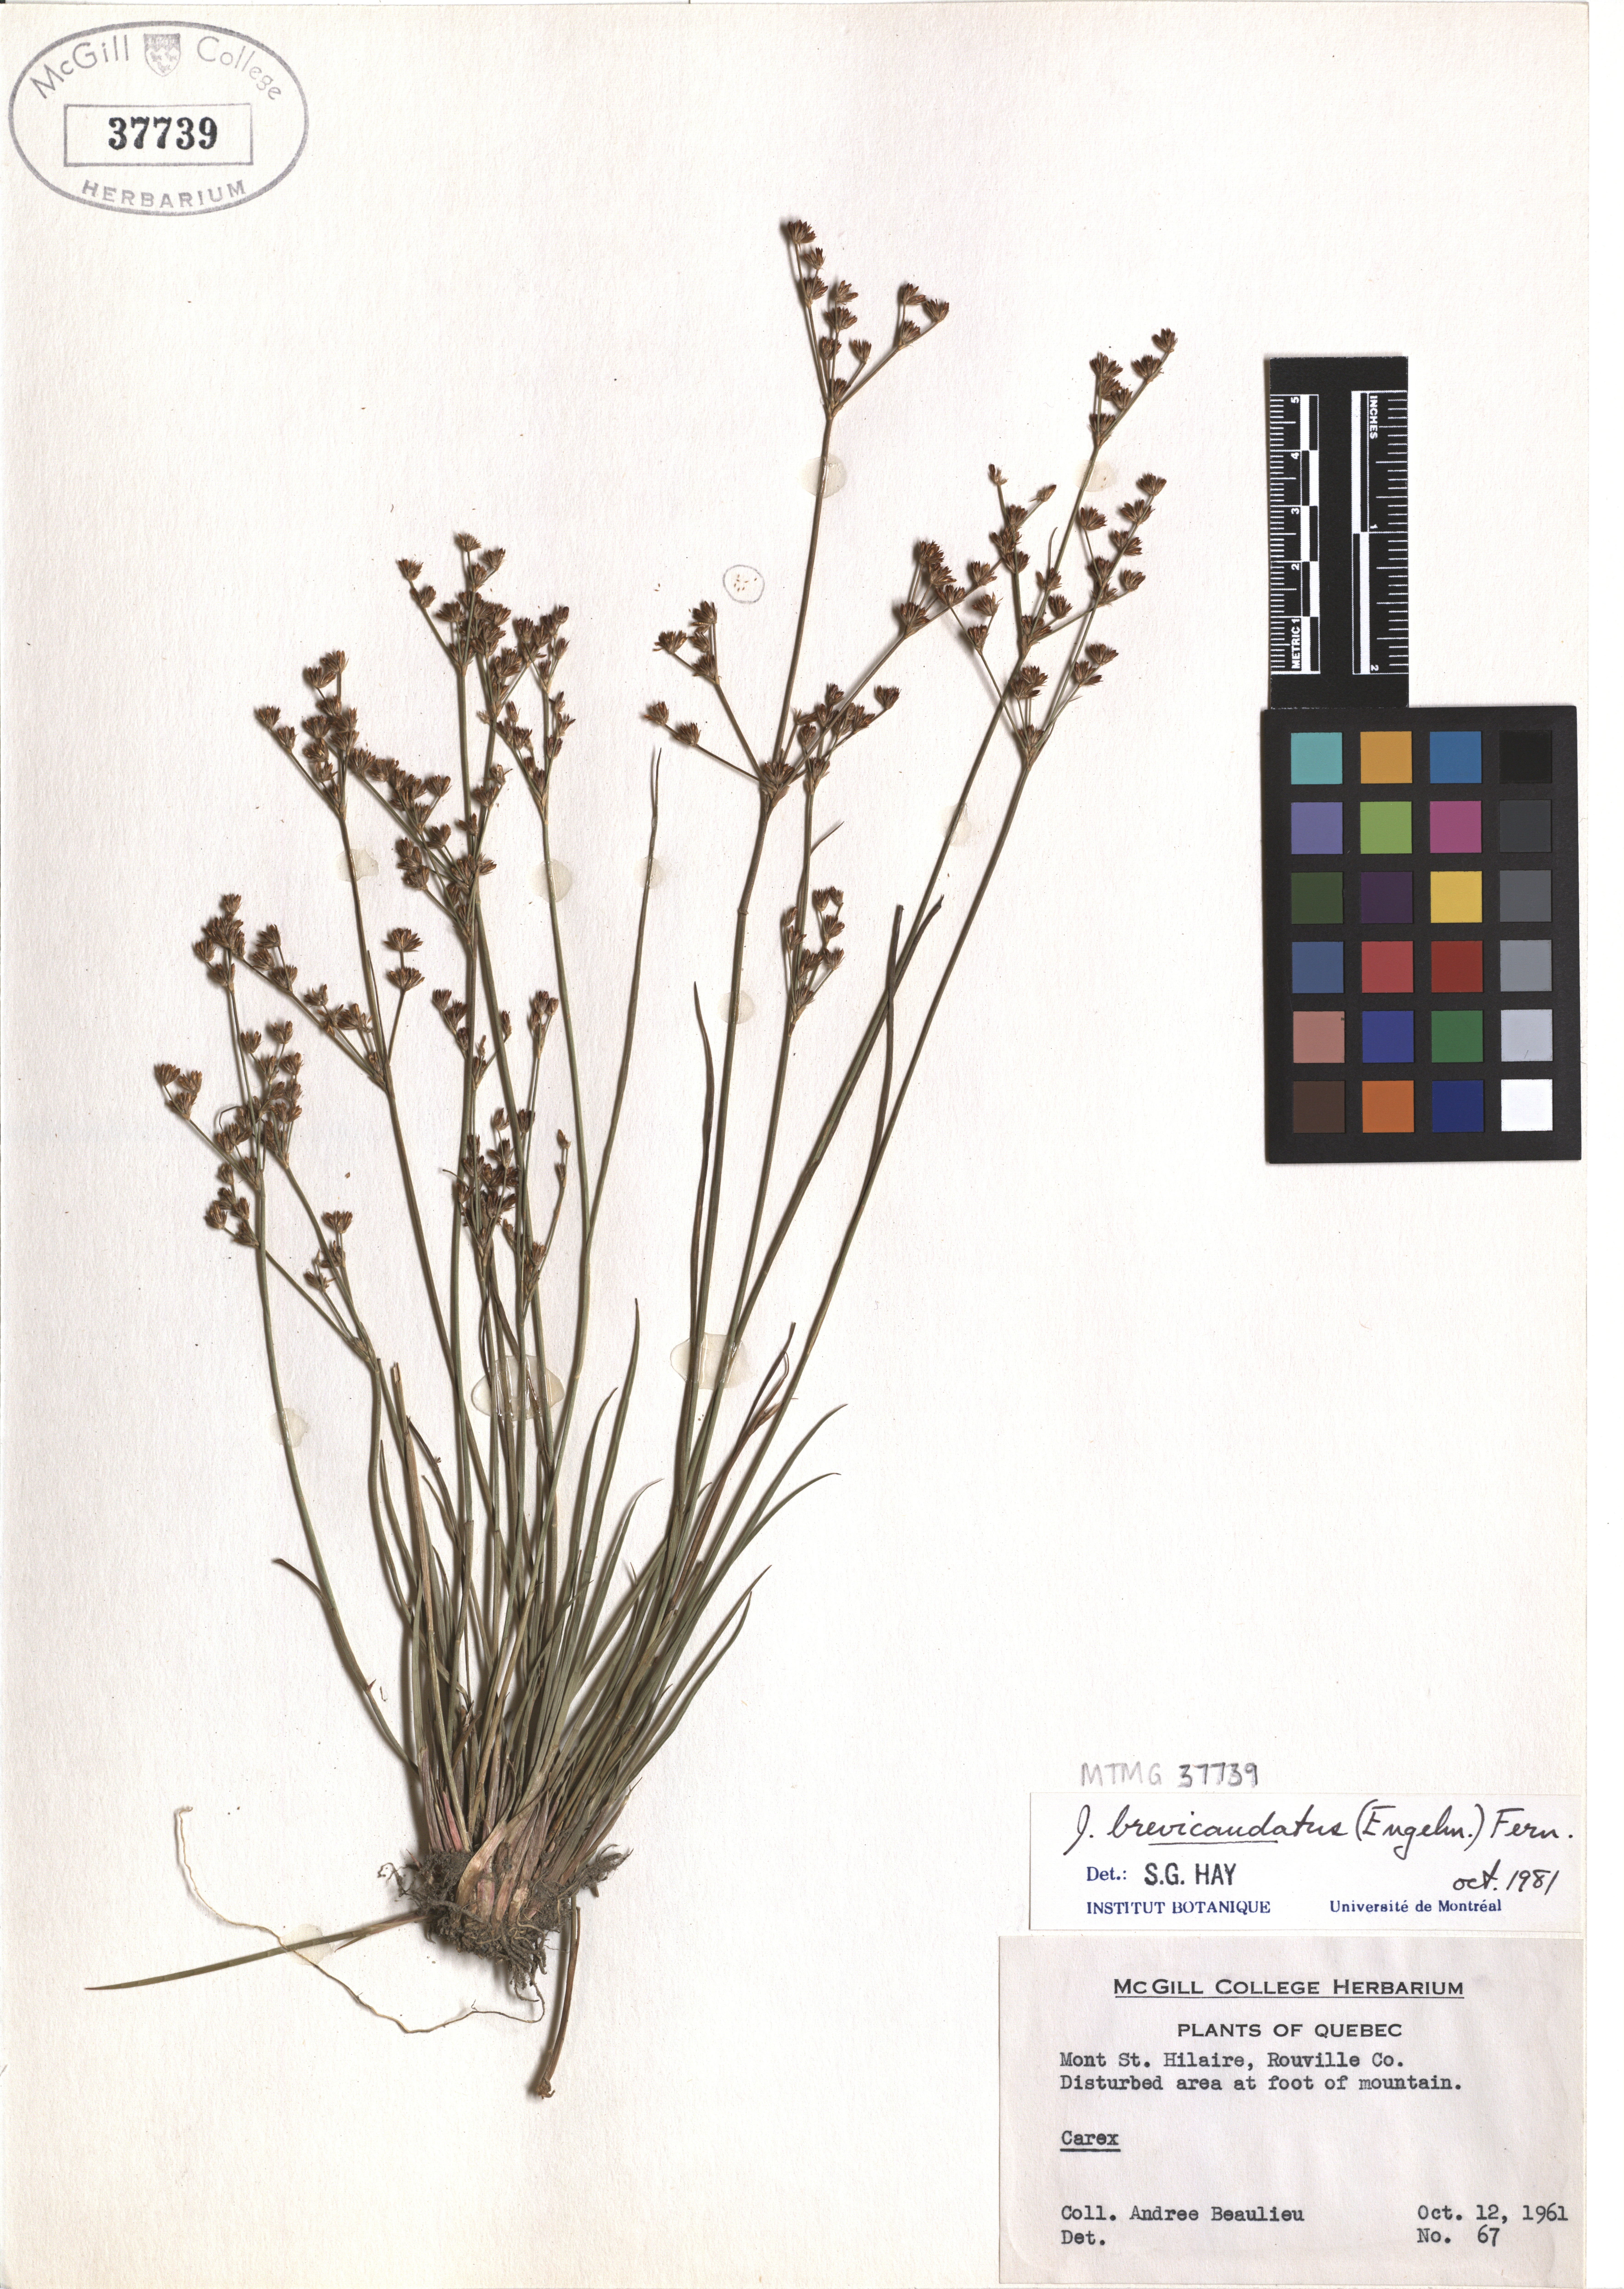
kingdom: Plantae
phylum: Tracheophyta
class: Liliopsida
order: Poales
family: Juncaceae
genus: Juncus
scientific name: Juncus brevicaudatus
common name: Narrow-panicle rush
